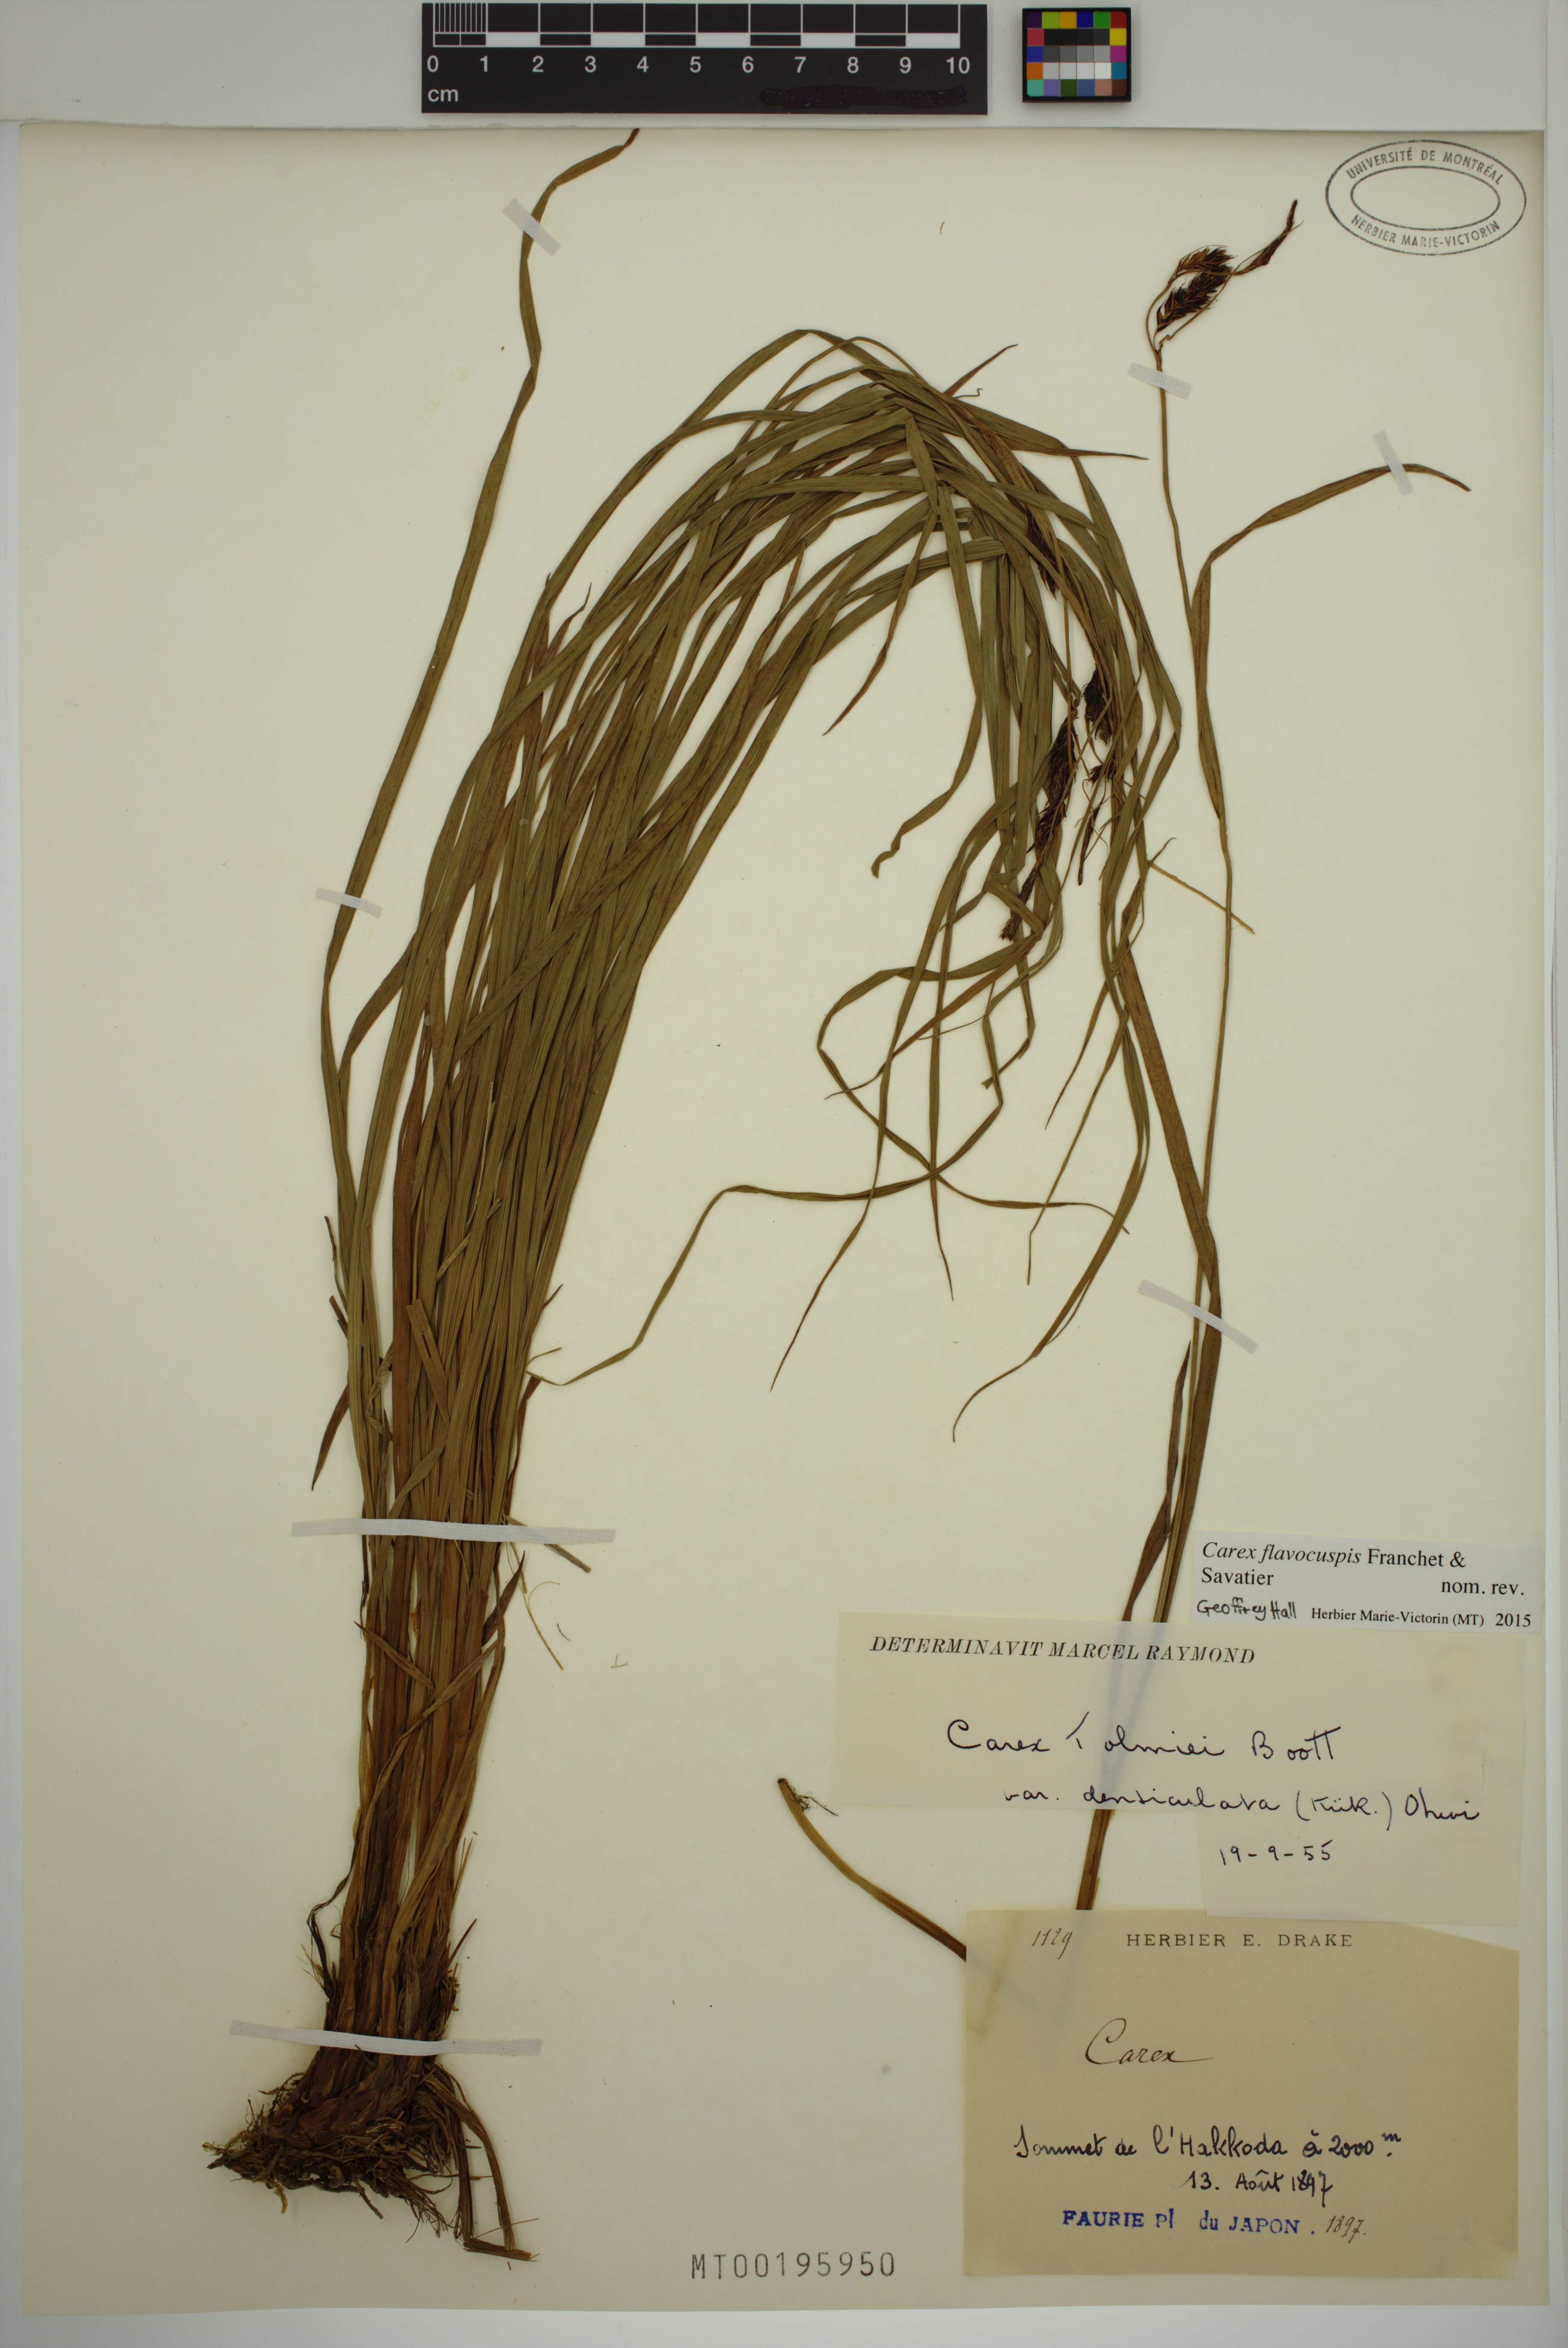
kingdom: Plantae
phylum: Tracheophyta
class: Liliopsida
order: Poales
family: Cyperaceae
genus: Carex
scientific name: Carex flavocuspis
